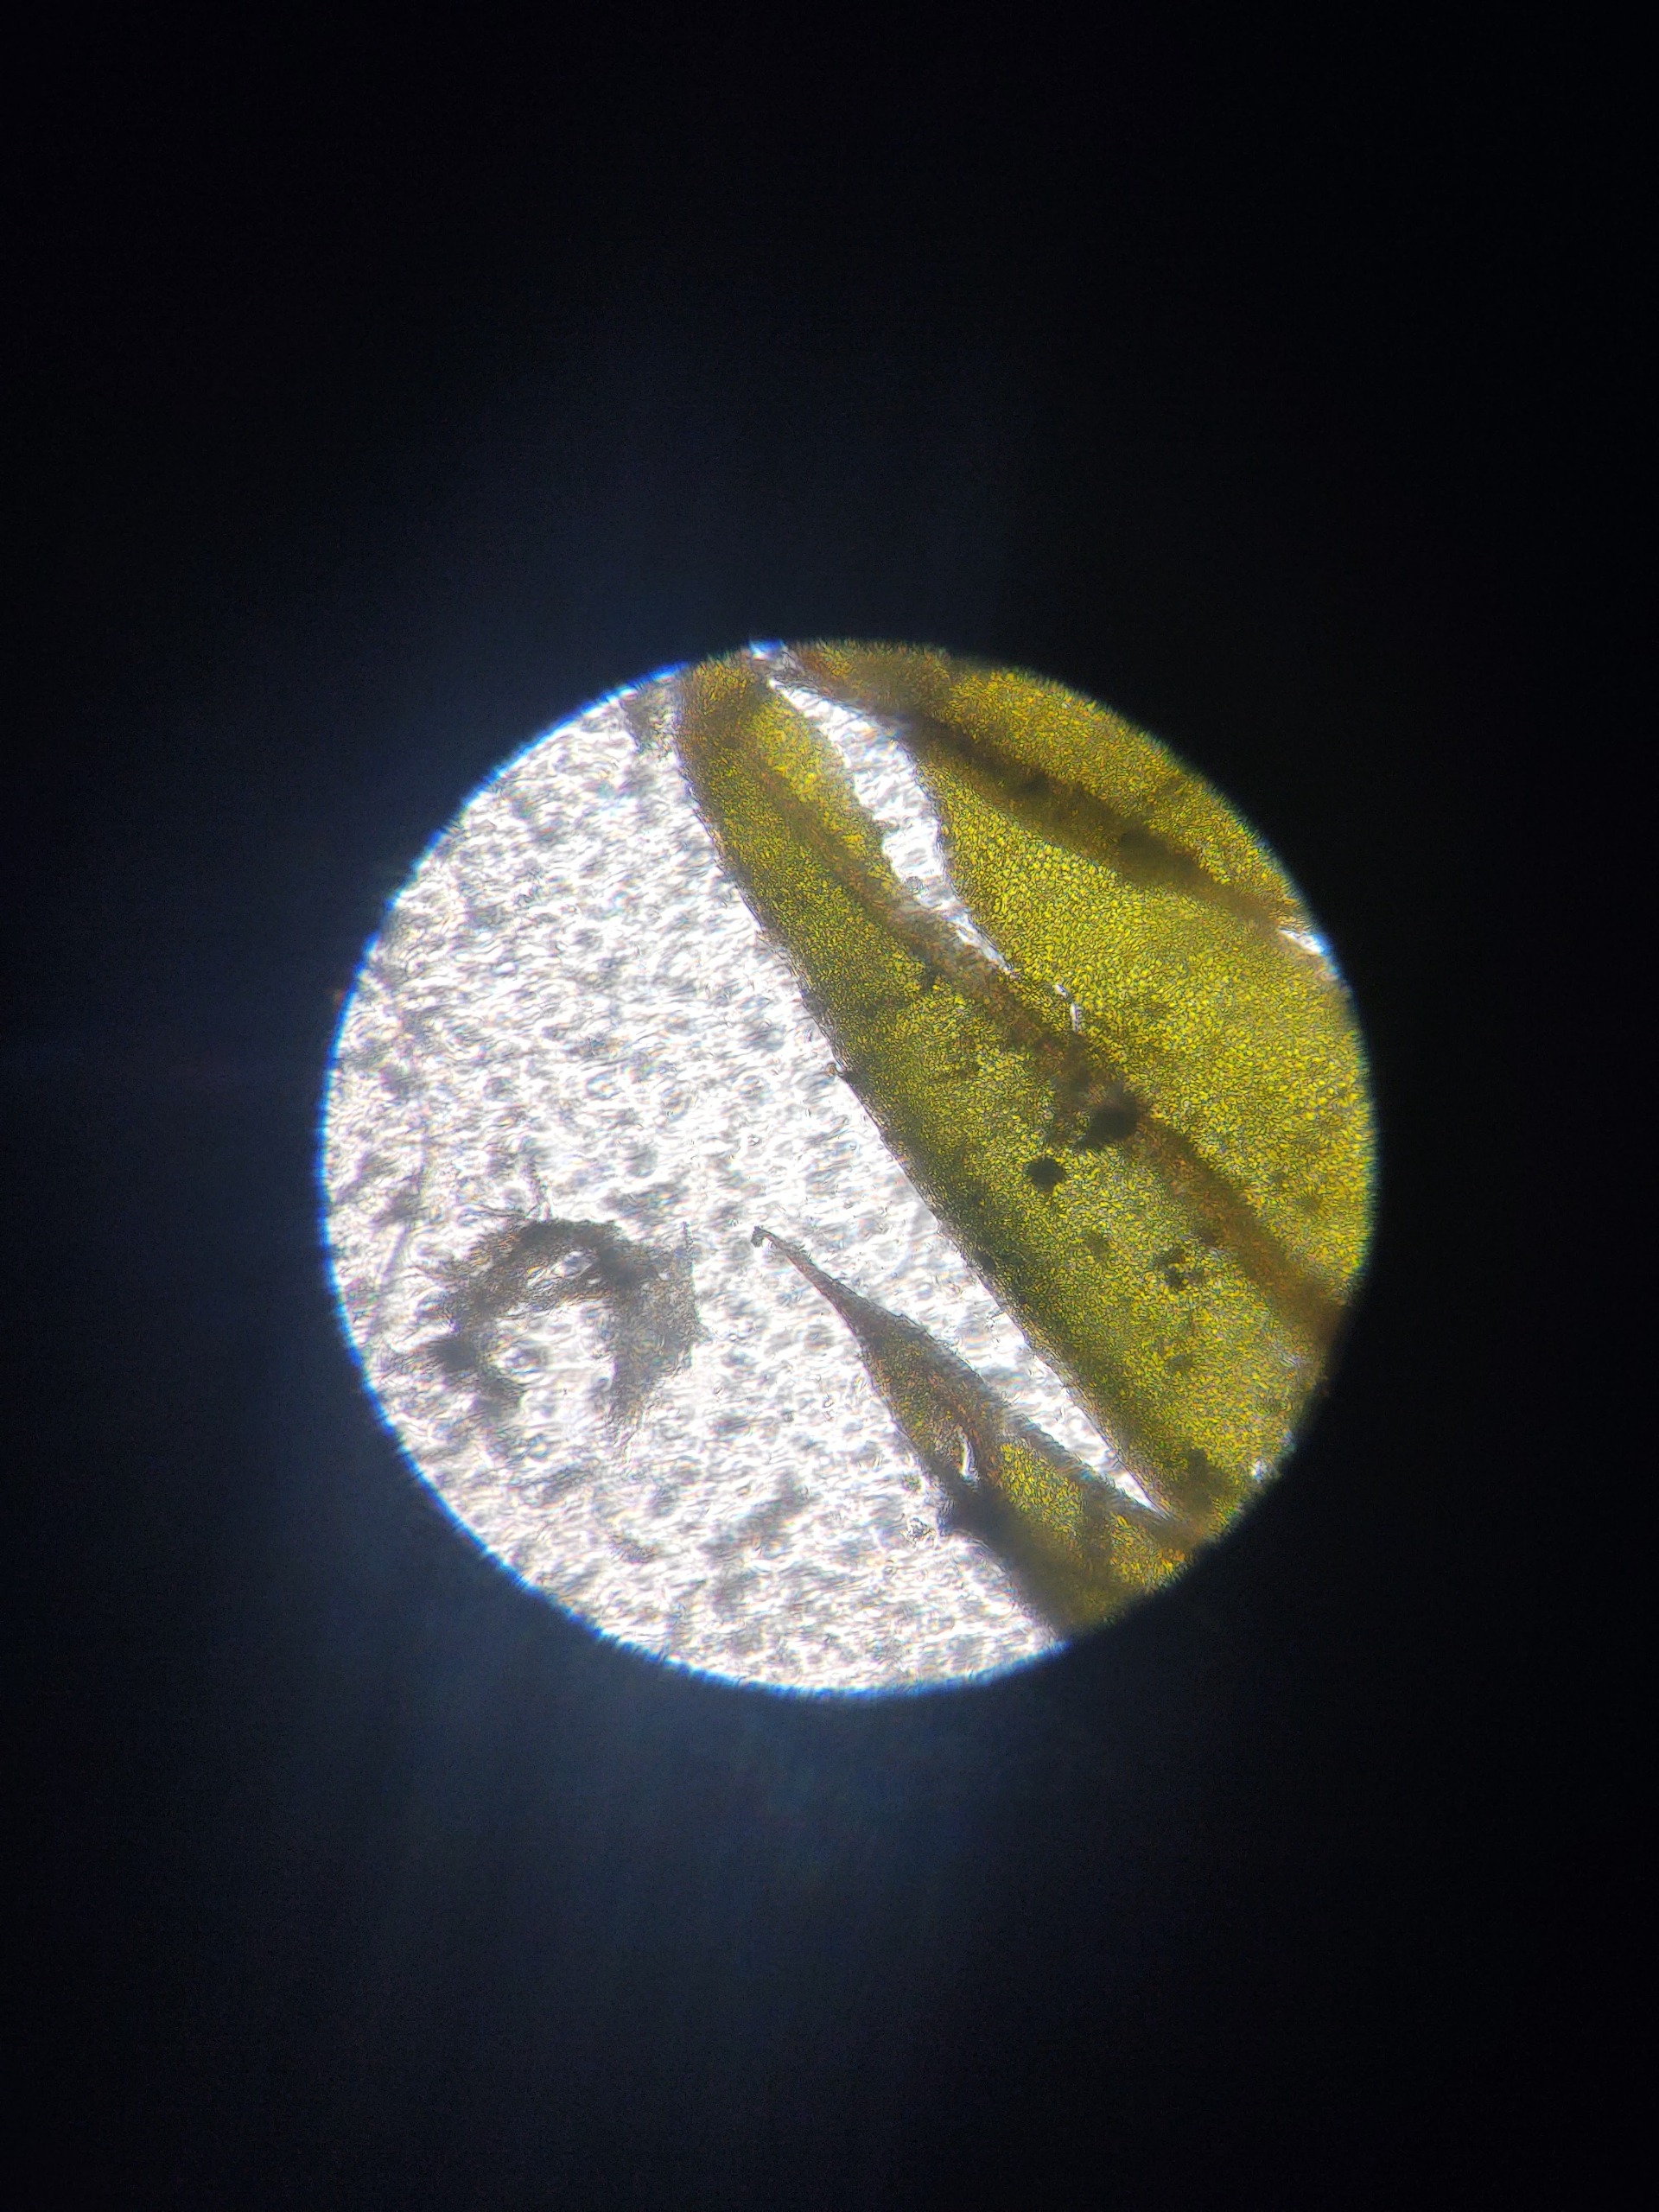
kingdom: Plantae
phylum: Bryophyta
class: Bryopsida
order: Bryales
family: Mniaceae
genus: Mnium
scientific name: Mnium hornum
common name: Brunfiltet stjernemos
